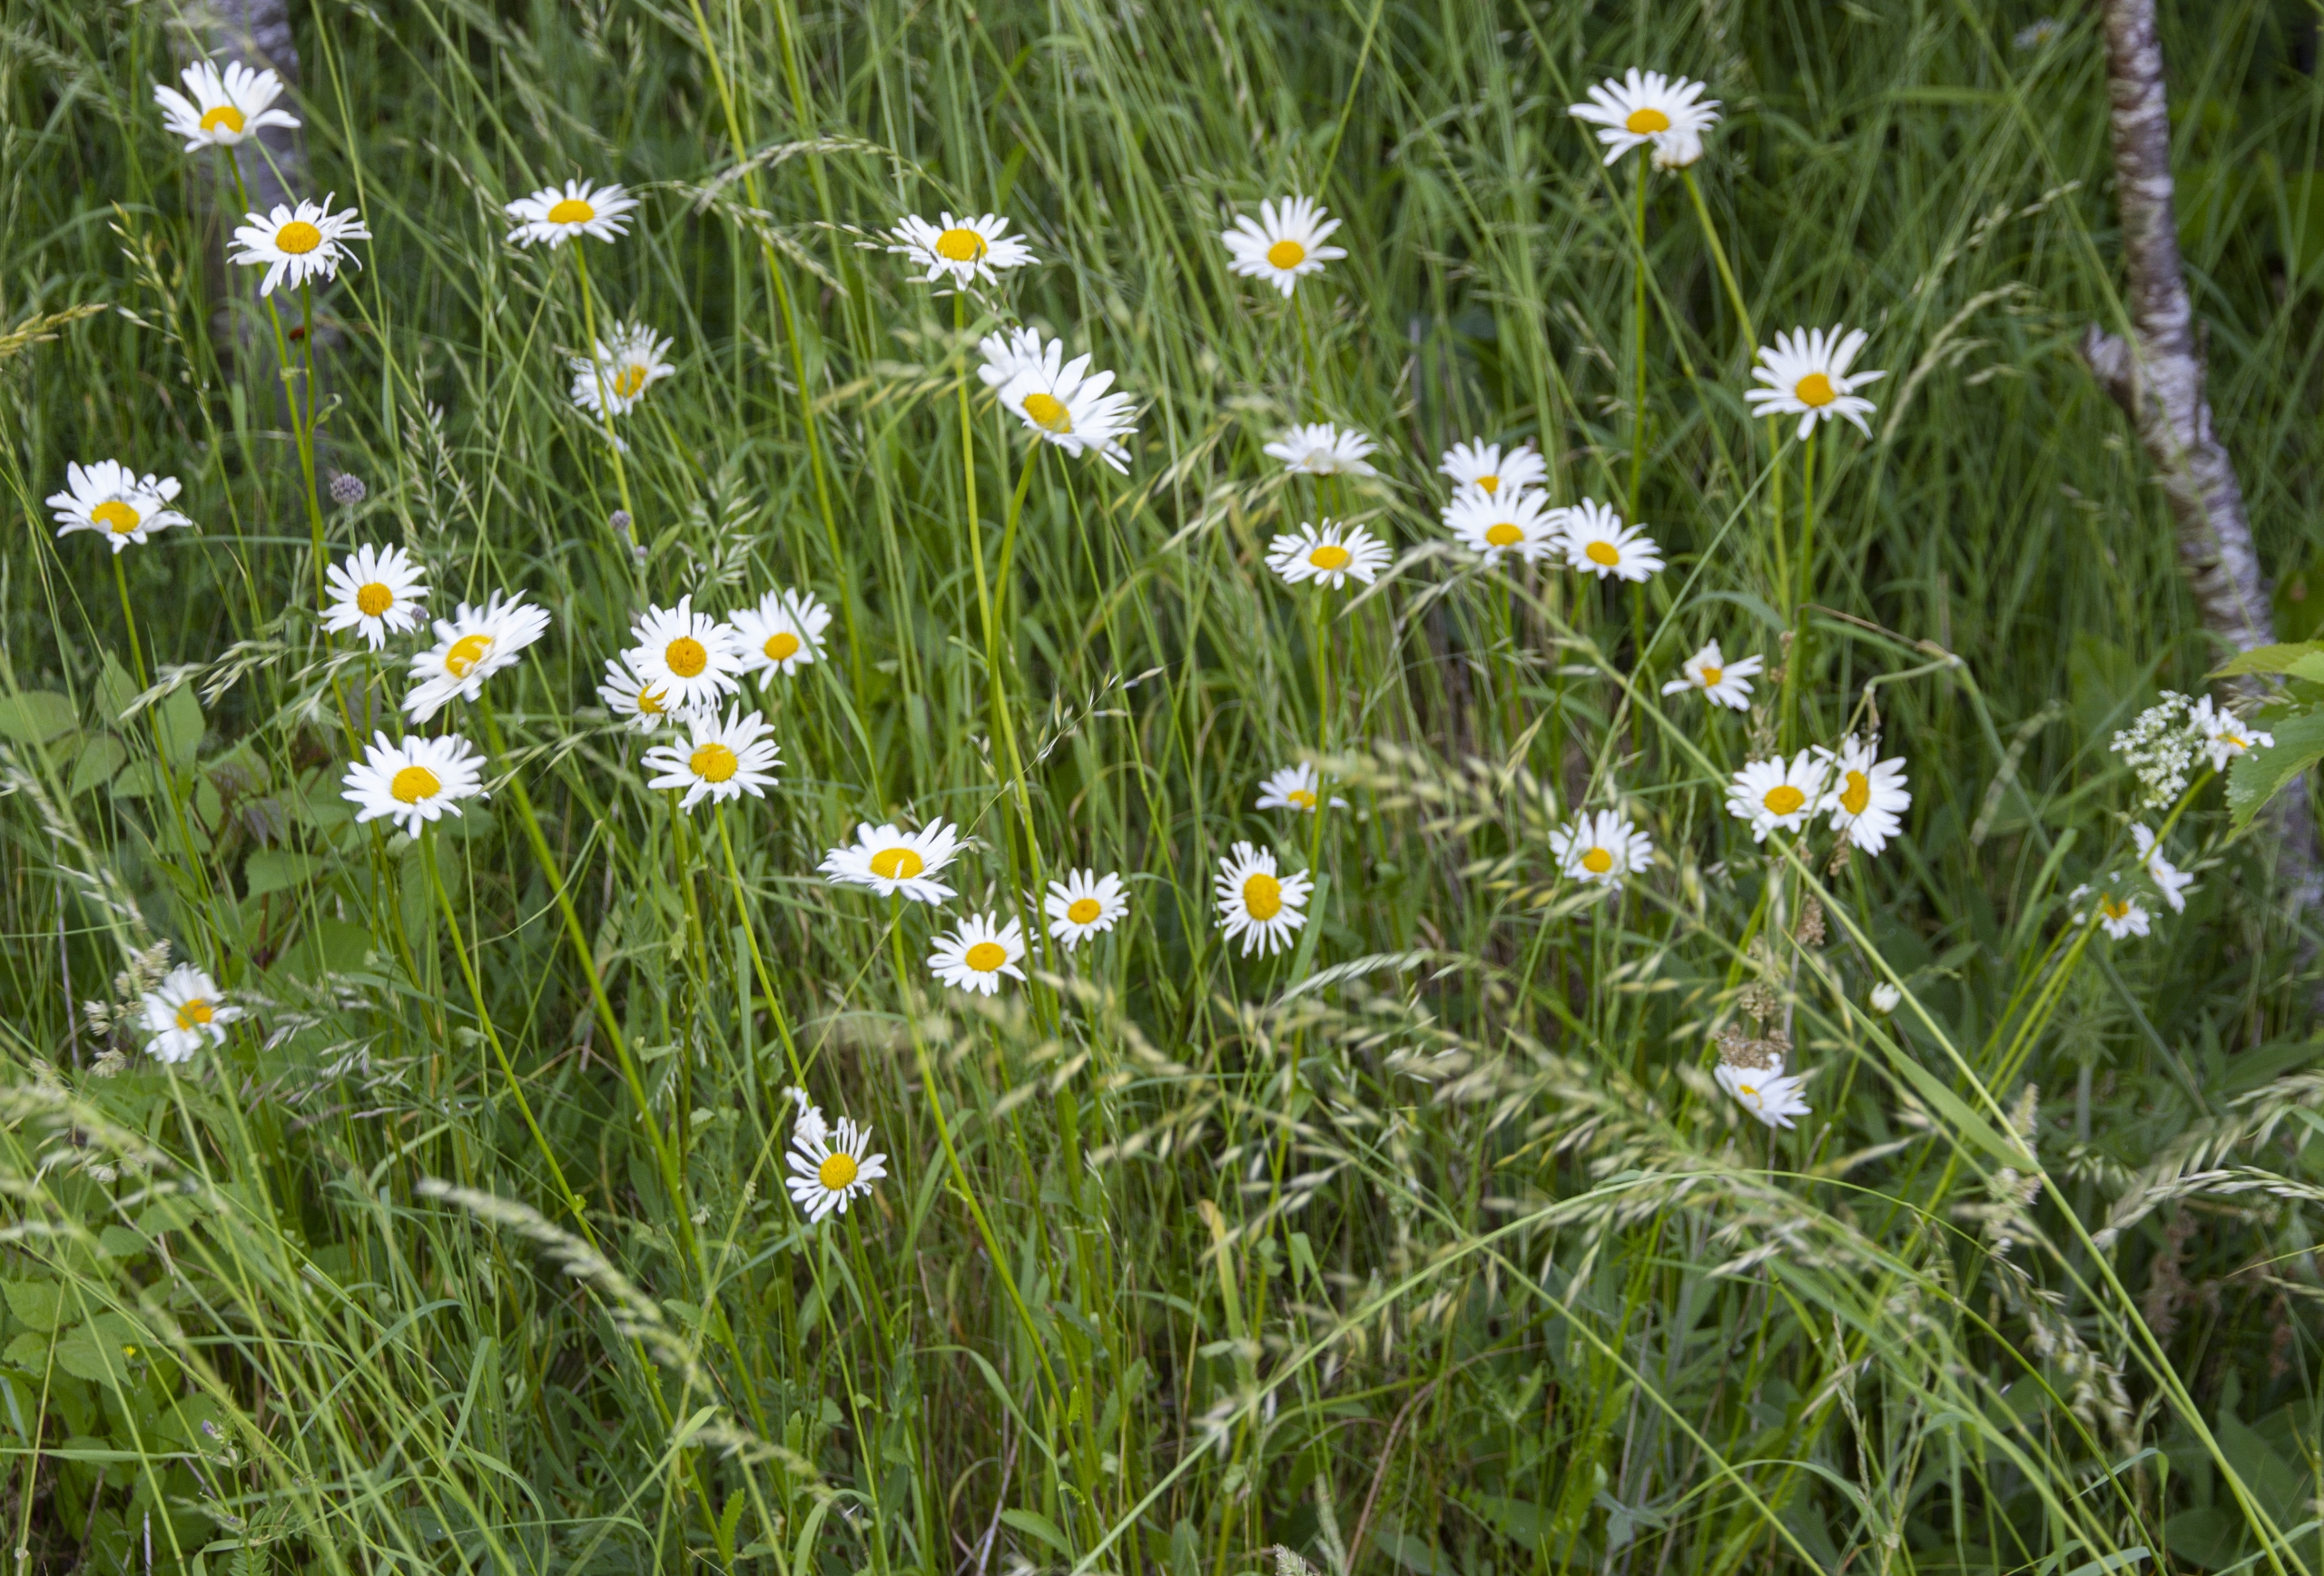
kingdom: Plantae
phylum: Tracheophyta
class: Magnoliopsida
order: Asterales
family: Asteraceae
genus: Leucanthemum
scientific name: Leucanthemum vulgare
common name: Hvid okseøje
